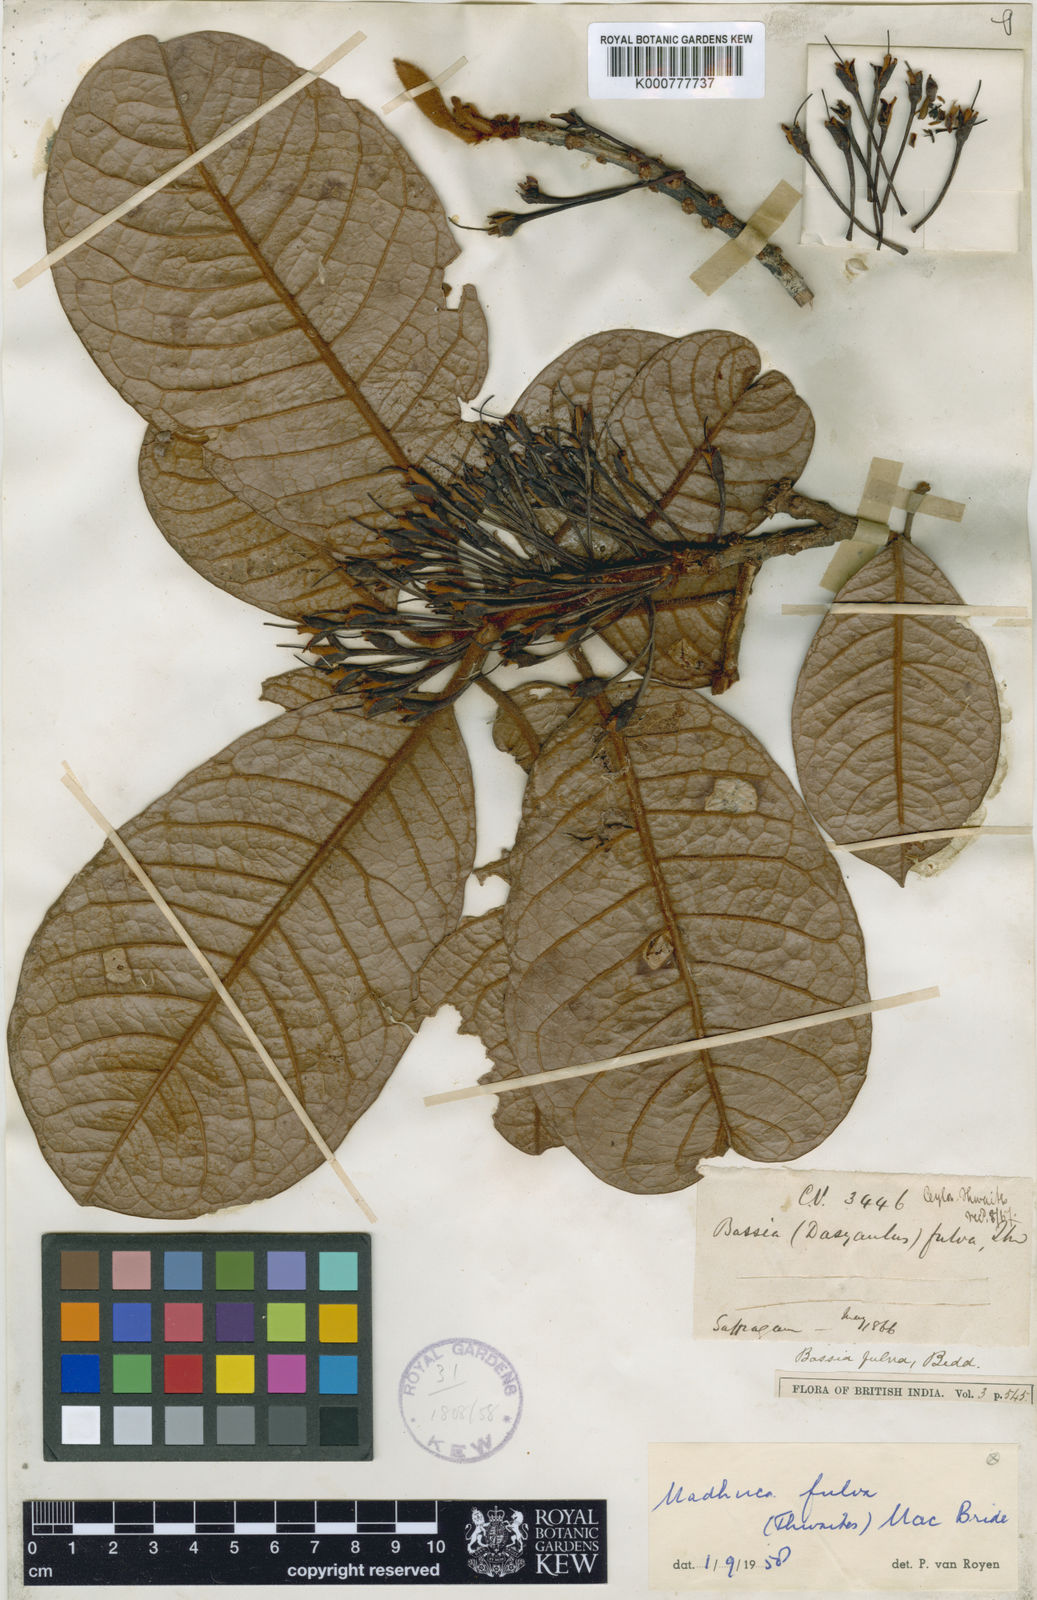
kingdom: Plantae
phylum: Tracheophyta
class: Magnoliopsida
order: Ericales
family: Sapotaceae
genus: Madhuca
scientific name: Madhuca fulva
